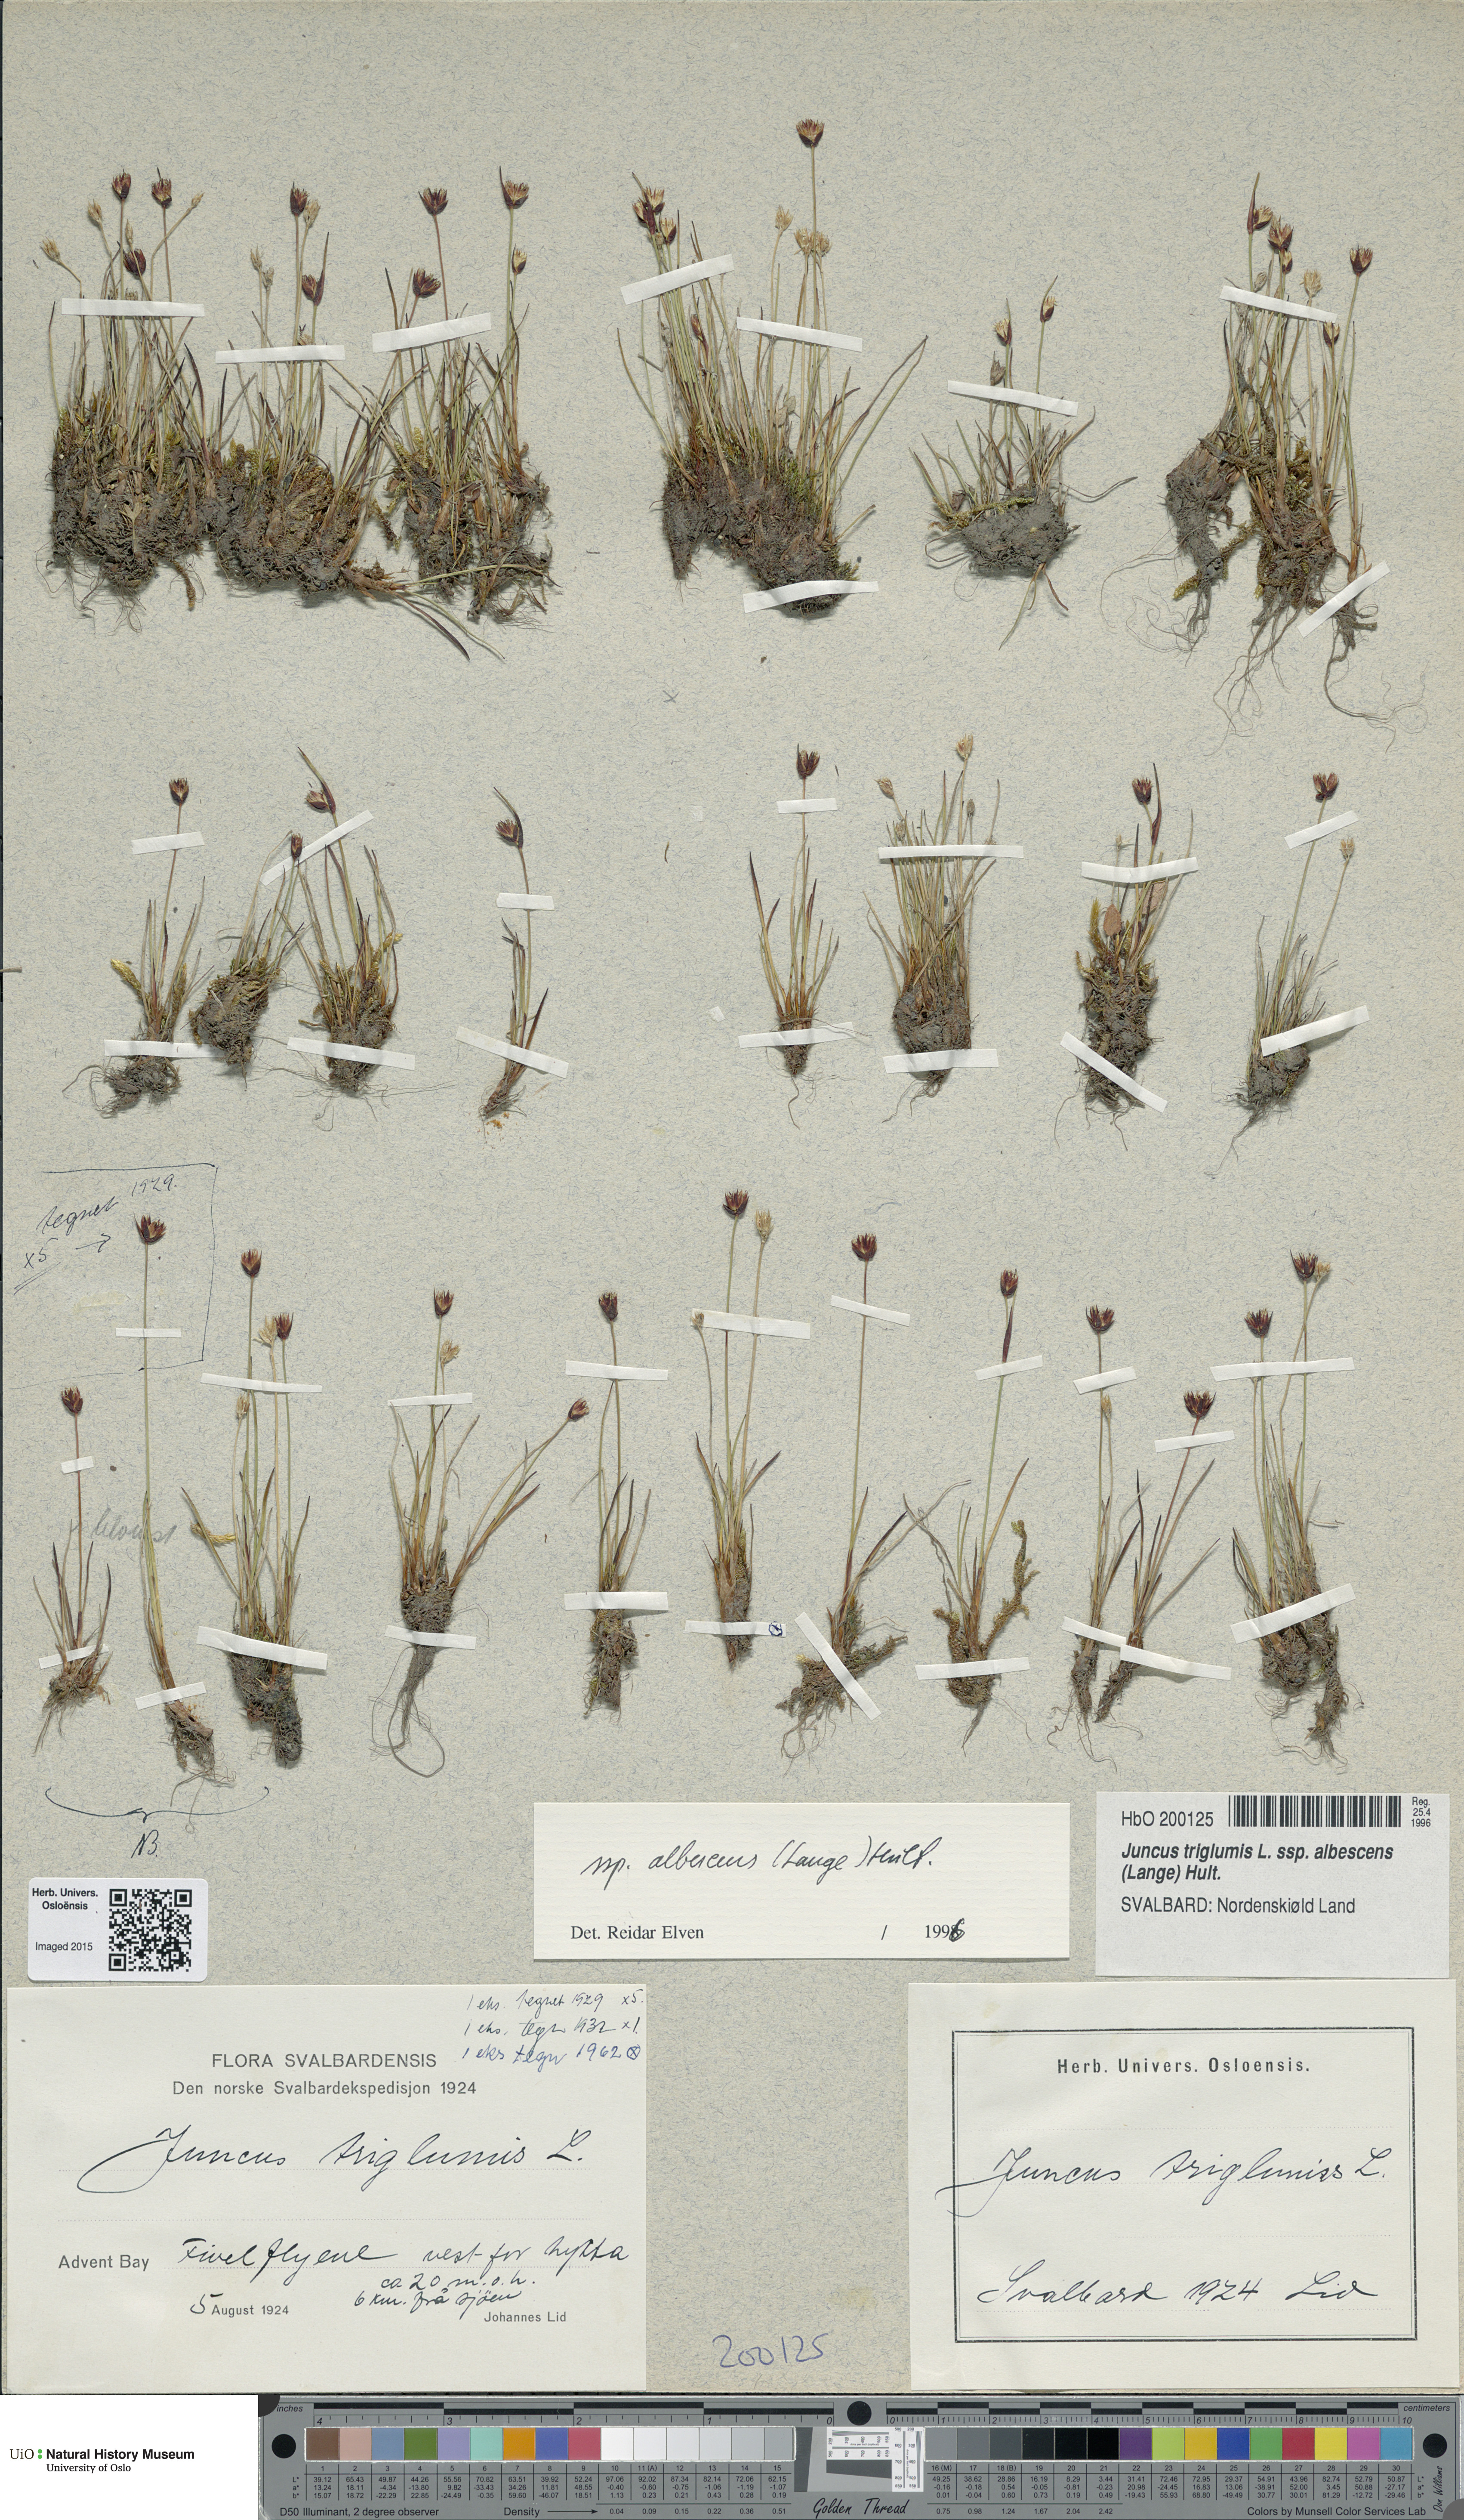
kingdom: Plantae
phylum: Tracheophyta
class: Liliopsida
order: Poales
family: Juncaceae
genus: Juncus
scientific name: Juncus albescens
